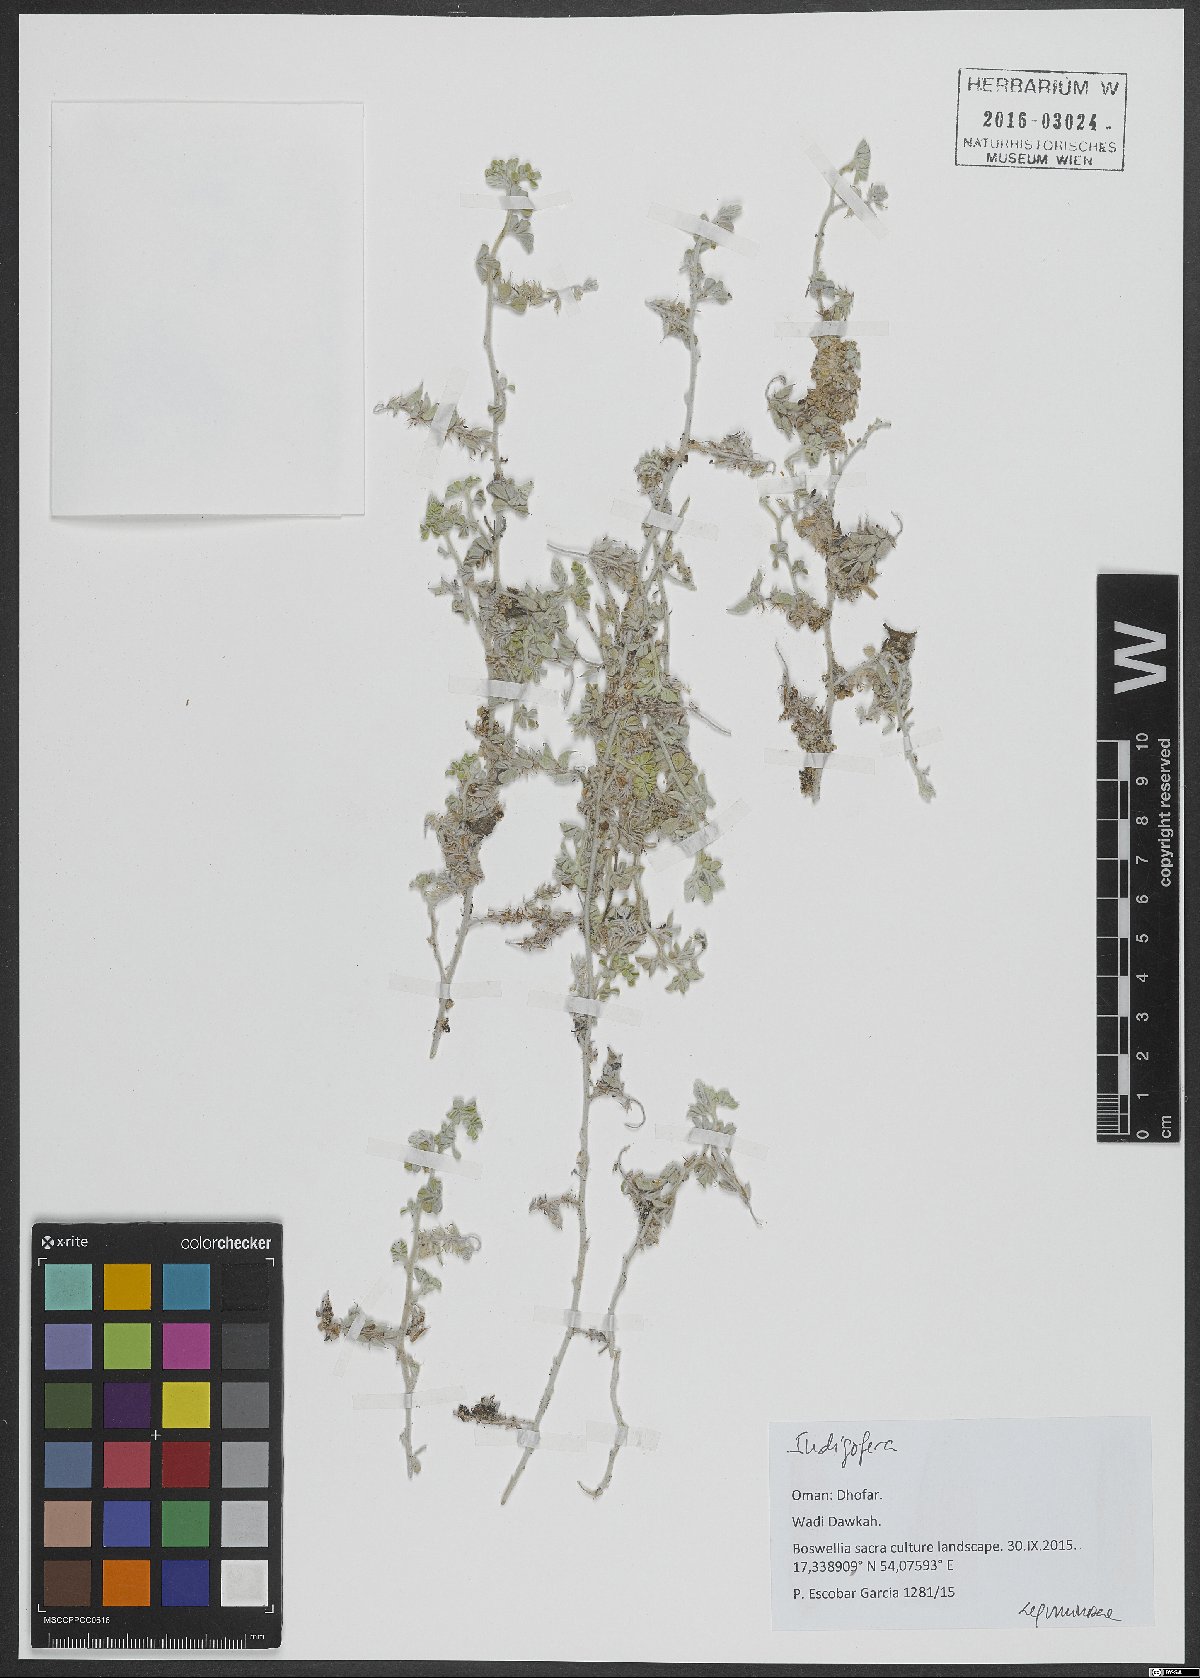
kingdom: Plantae
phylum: Tracheophyta
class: Magnoliopsida
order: Fabales
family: Fabaceae
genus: Indigofera
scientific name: Indigofera
